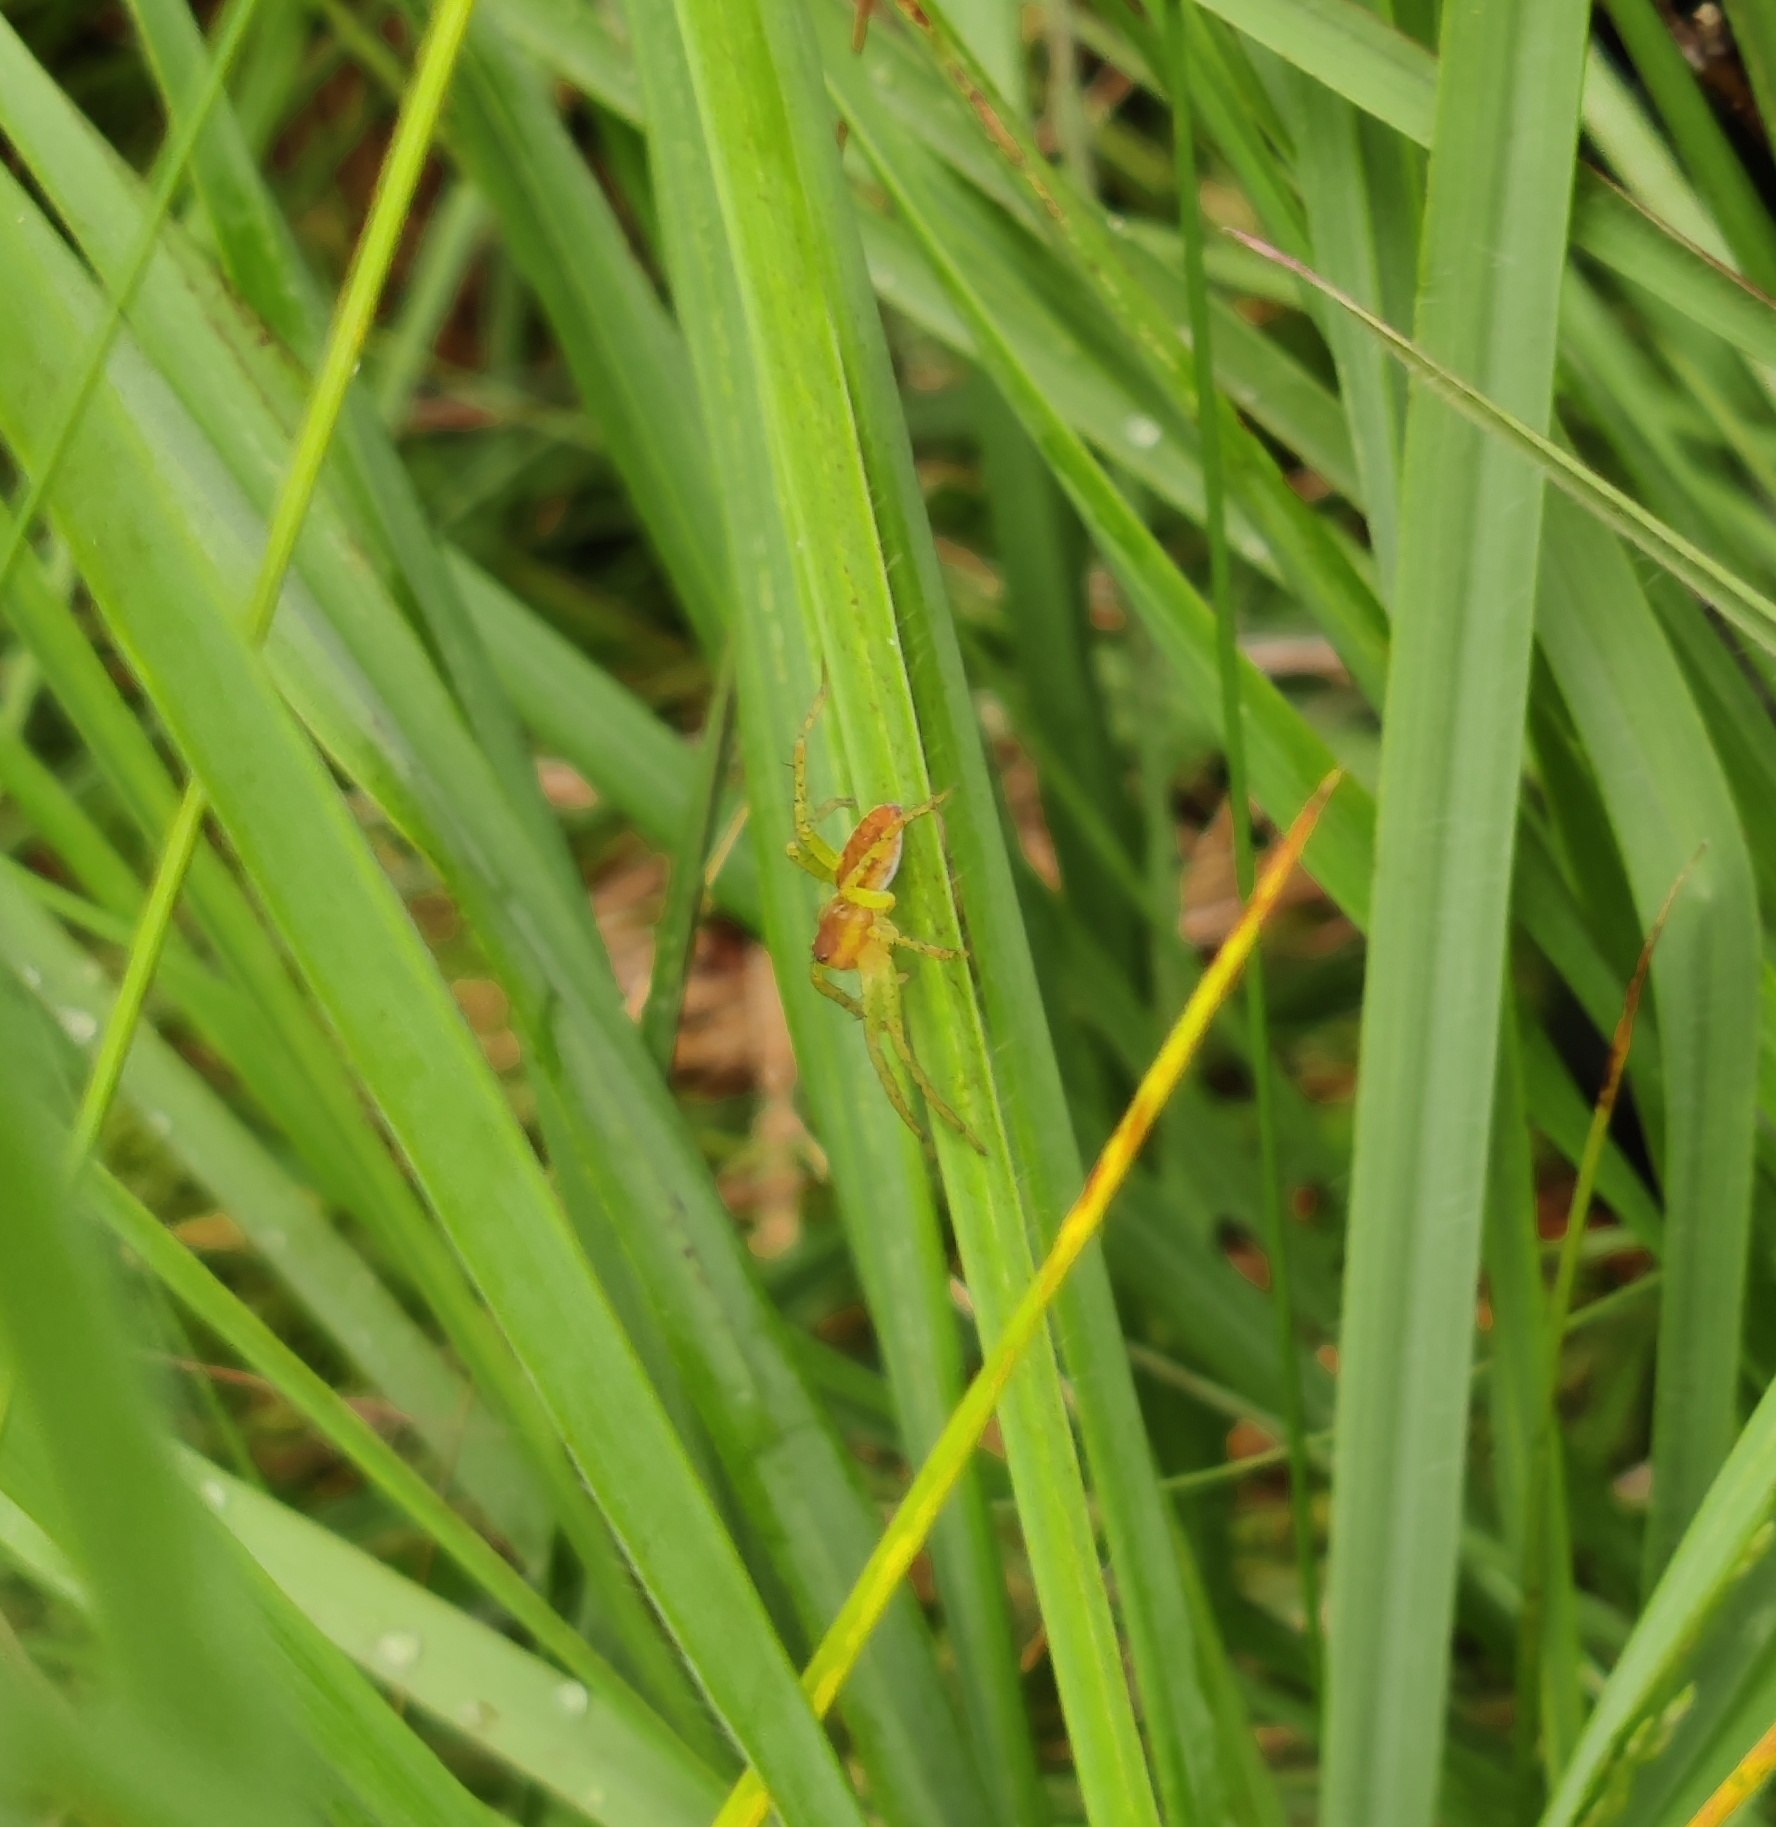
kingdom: Animalia
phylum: Arthropoda
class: Arachnida
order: Araneae
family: Pisauridae
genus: Dolomedes
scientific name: Dolomedes
